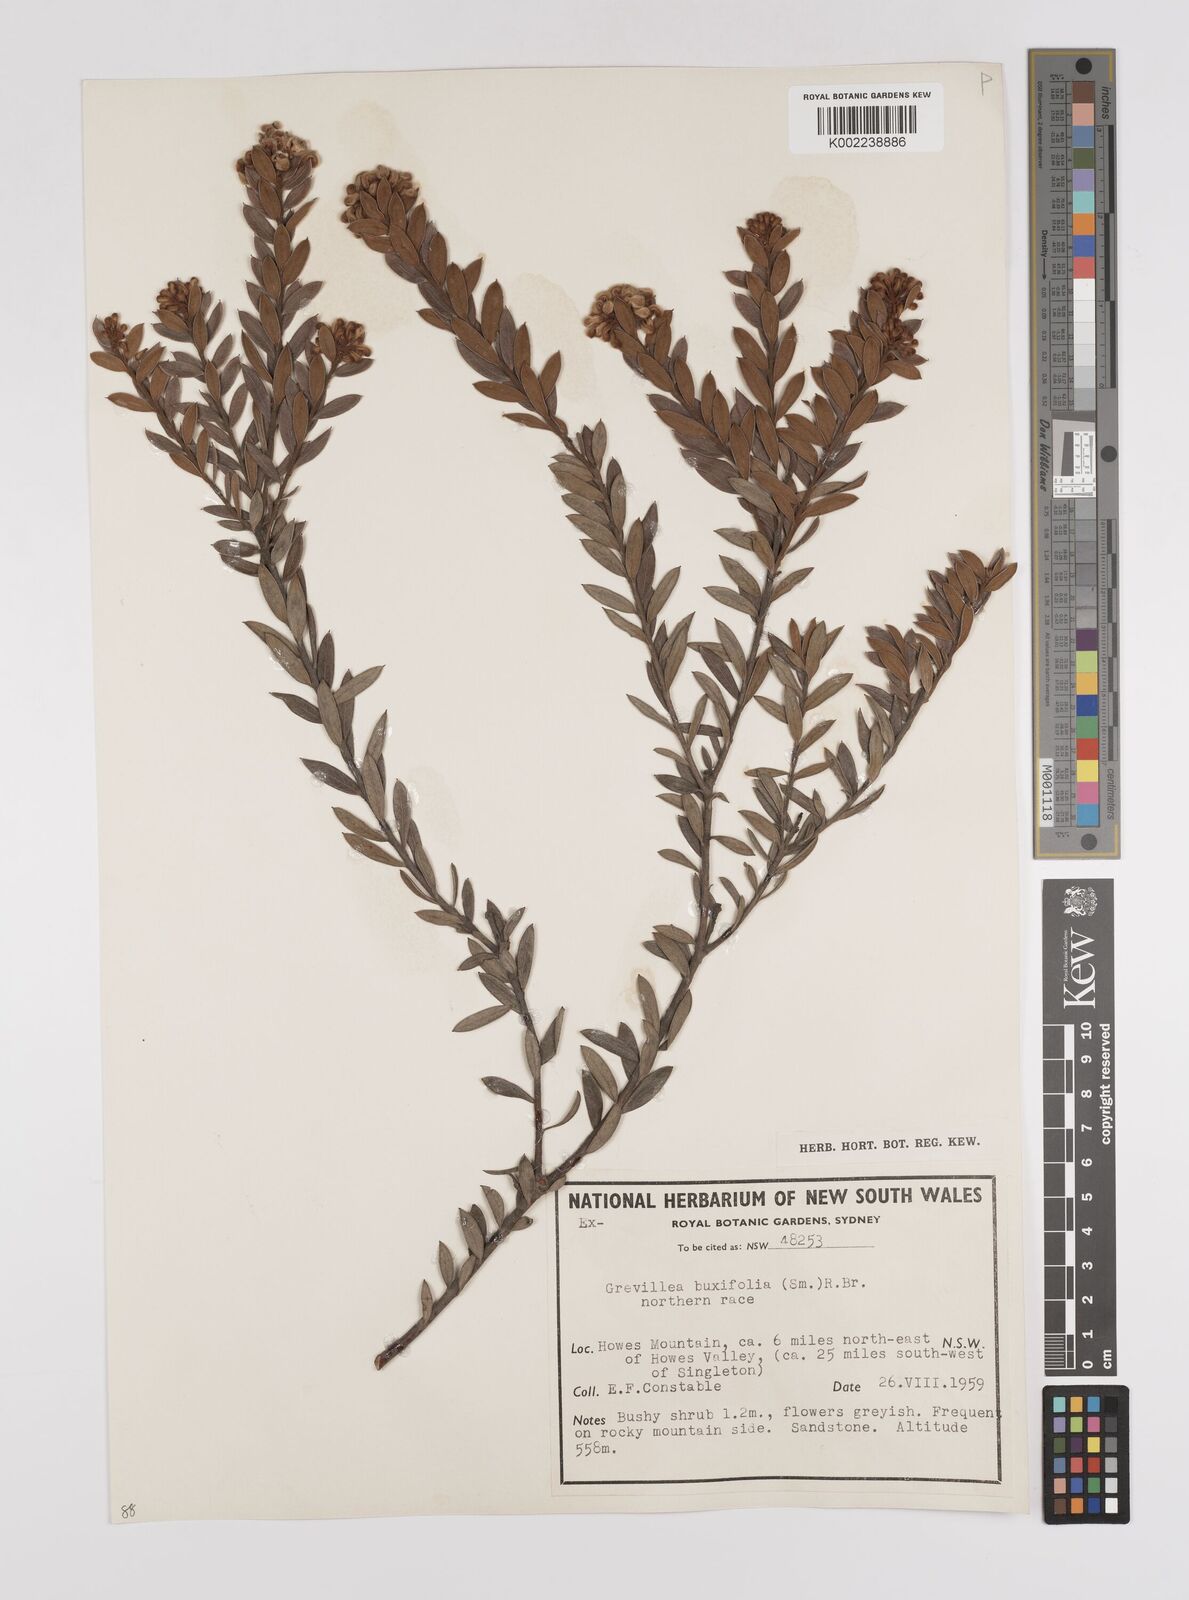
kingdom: Plantae
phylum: Tracheophyta
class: Magnoliopsida
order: Proteales
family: Proteaceae
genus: Grevillea
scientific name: Grevillea buxifolia
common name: Grey spiderflower
